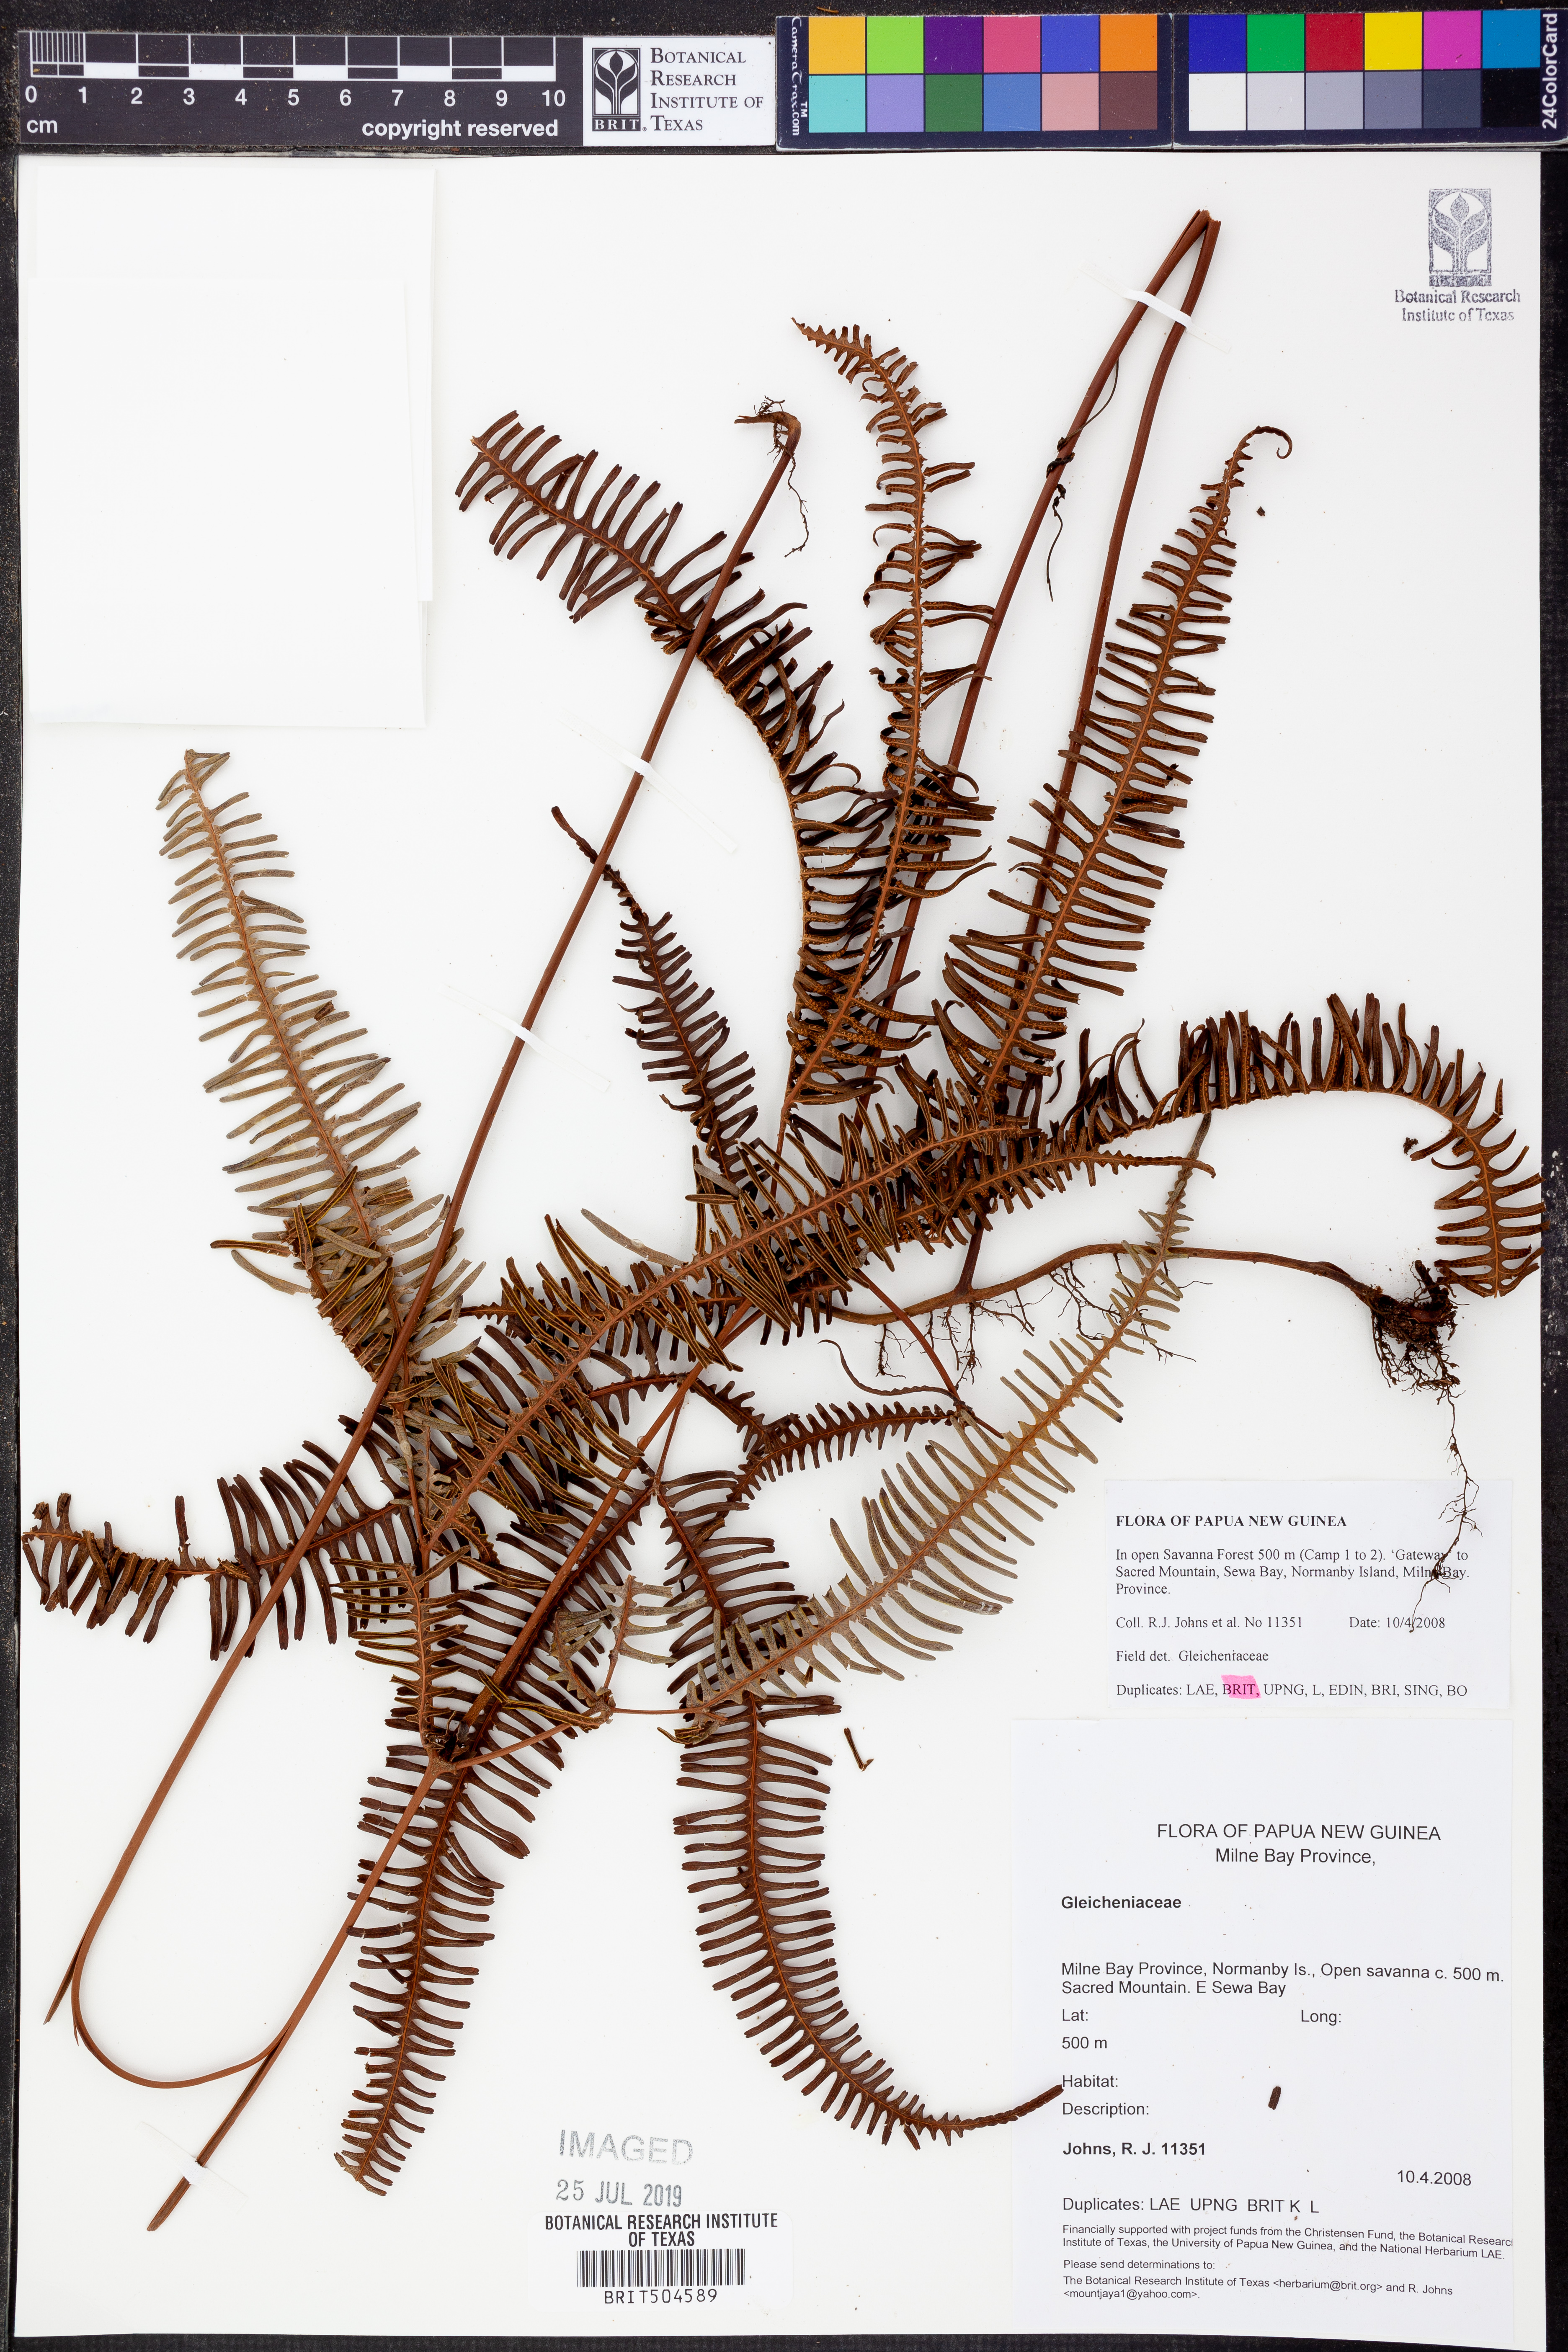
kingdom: Plantae
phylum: Tracheophyta
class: Polypodiopsida
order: Gleicheniales
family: Gleicheniaceae
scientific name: Gleicheniaceae
